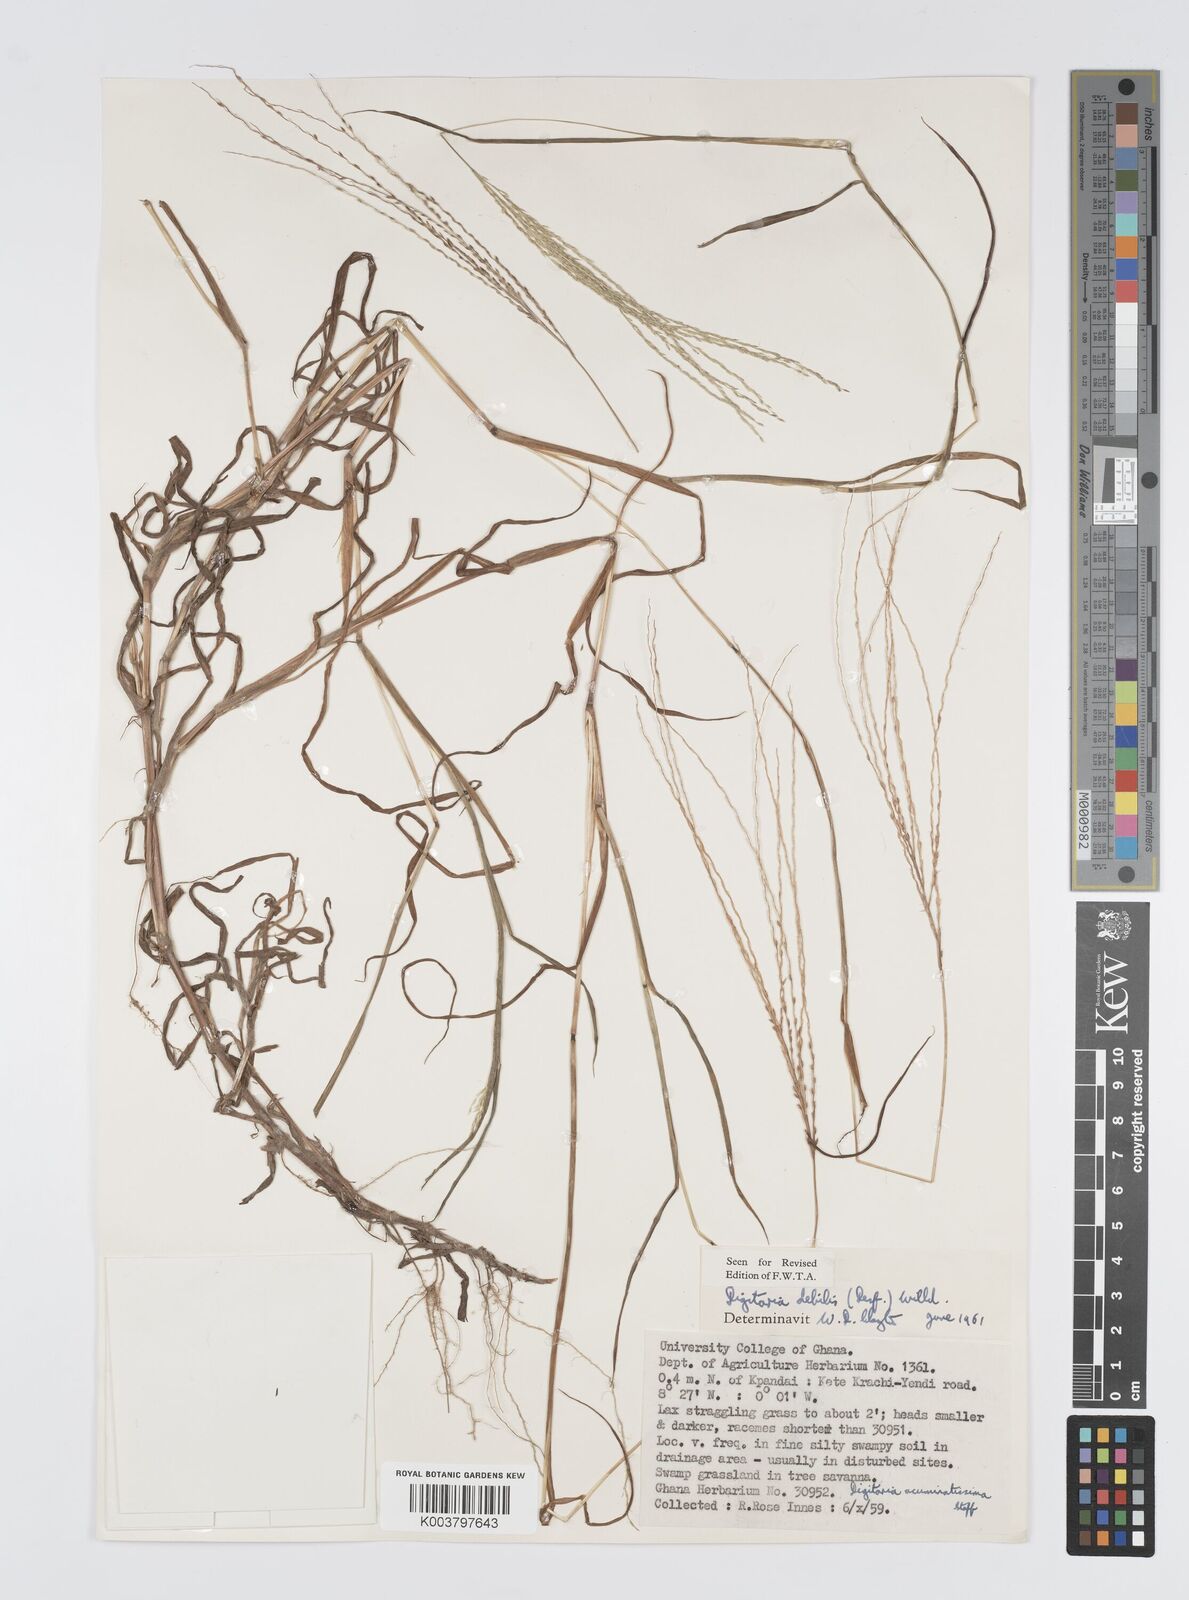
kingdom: Plantae
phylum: Tracheophyta
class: Liliopsida
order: Poales
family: Poaceae
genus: Digitaria
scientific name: Digitaria debilis
